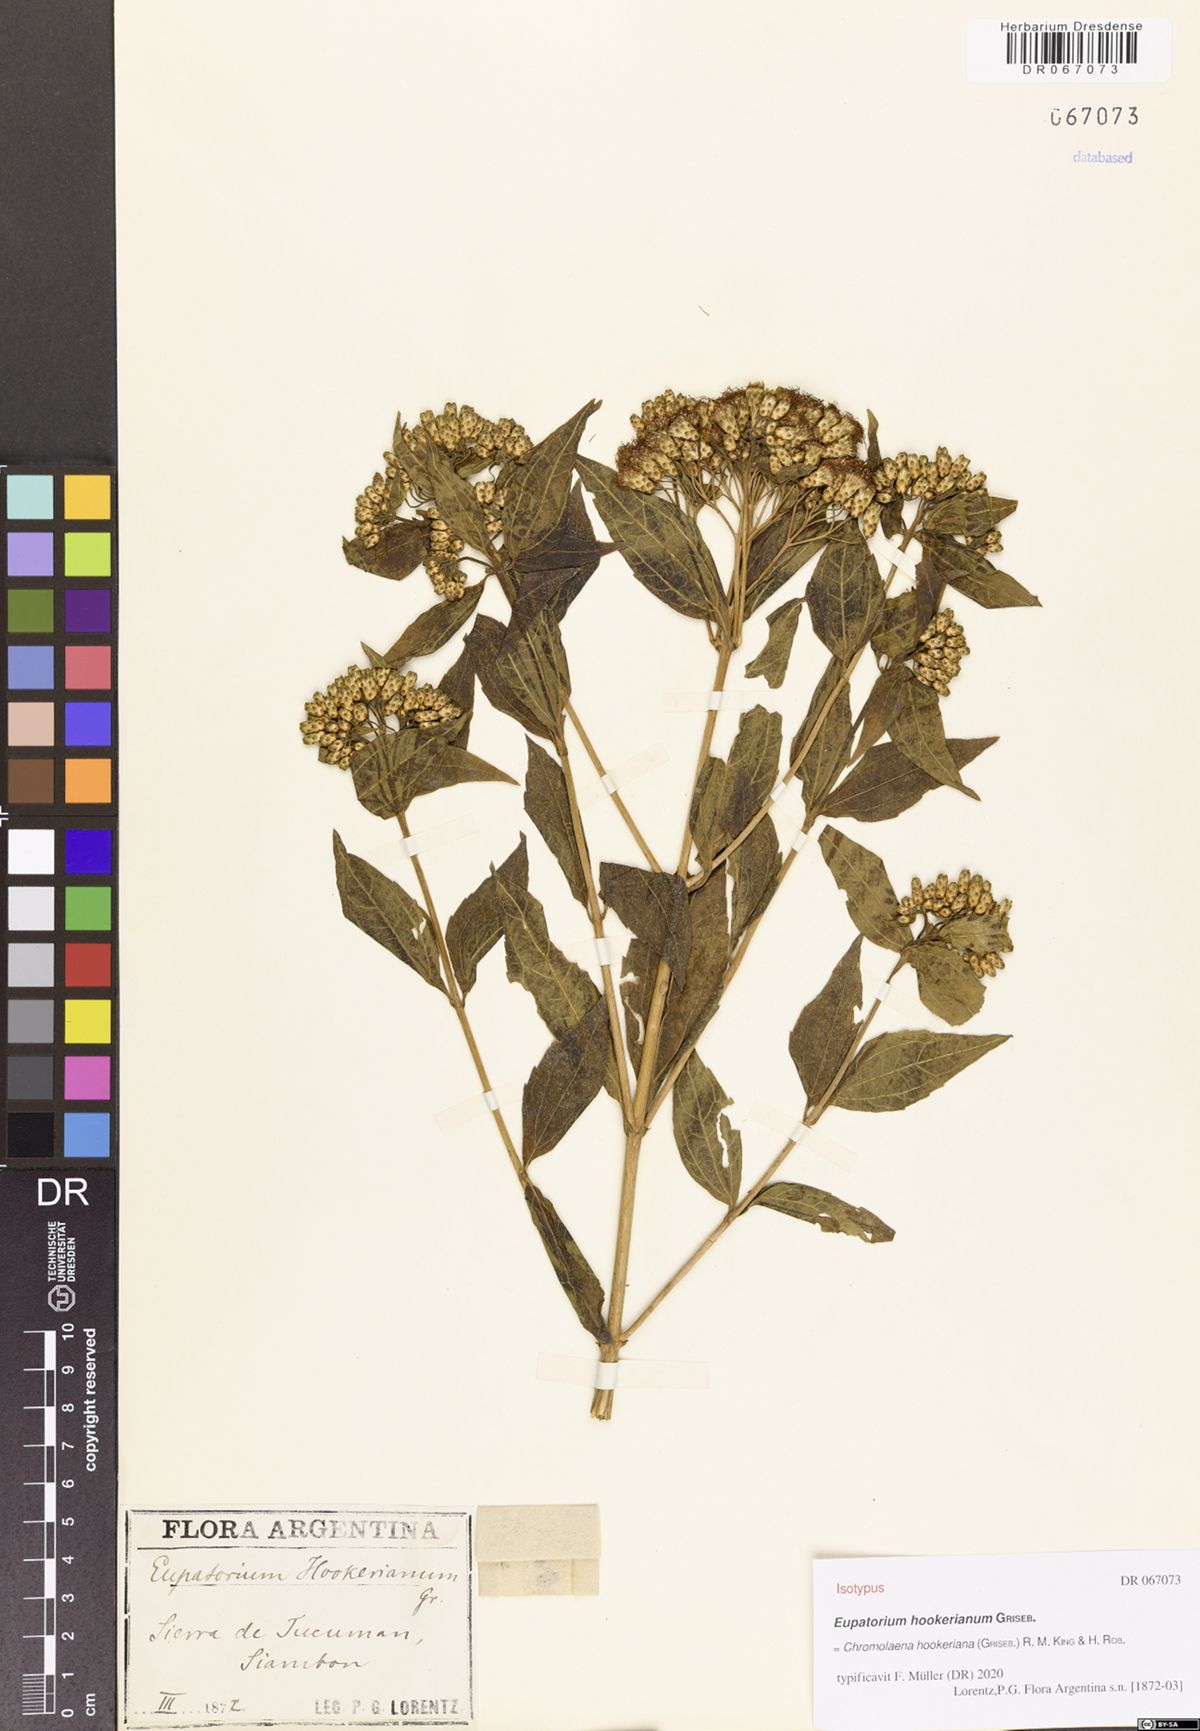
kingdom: Plantae
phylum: Tracheophyta
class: Magnoliopsida
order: Asterales
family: Asteraceae
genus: Chromolaena
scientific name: Chromolaena hookeriana
